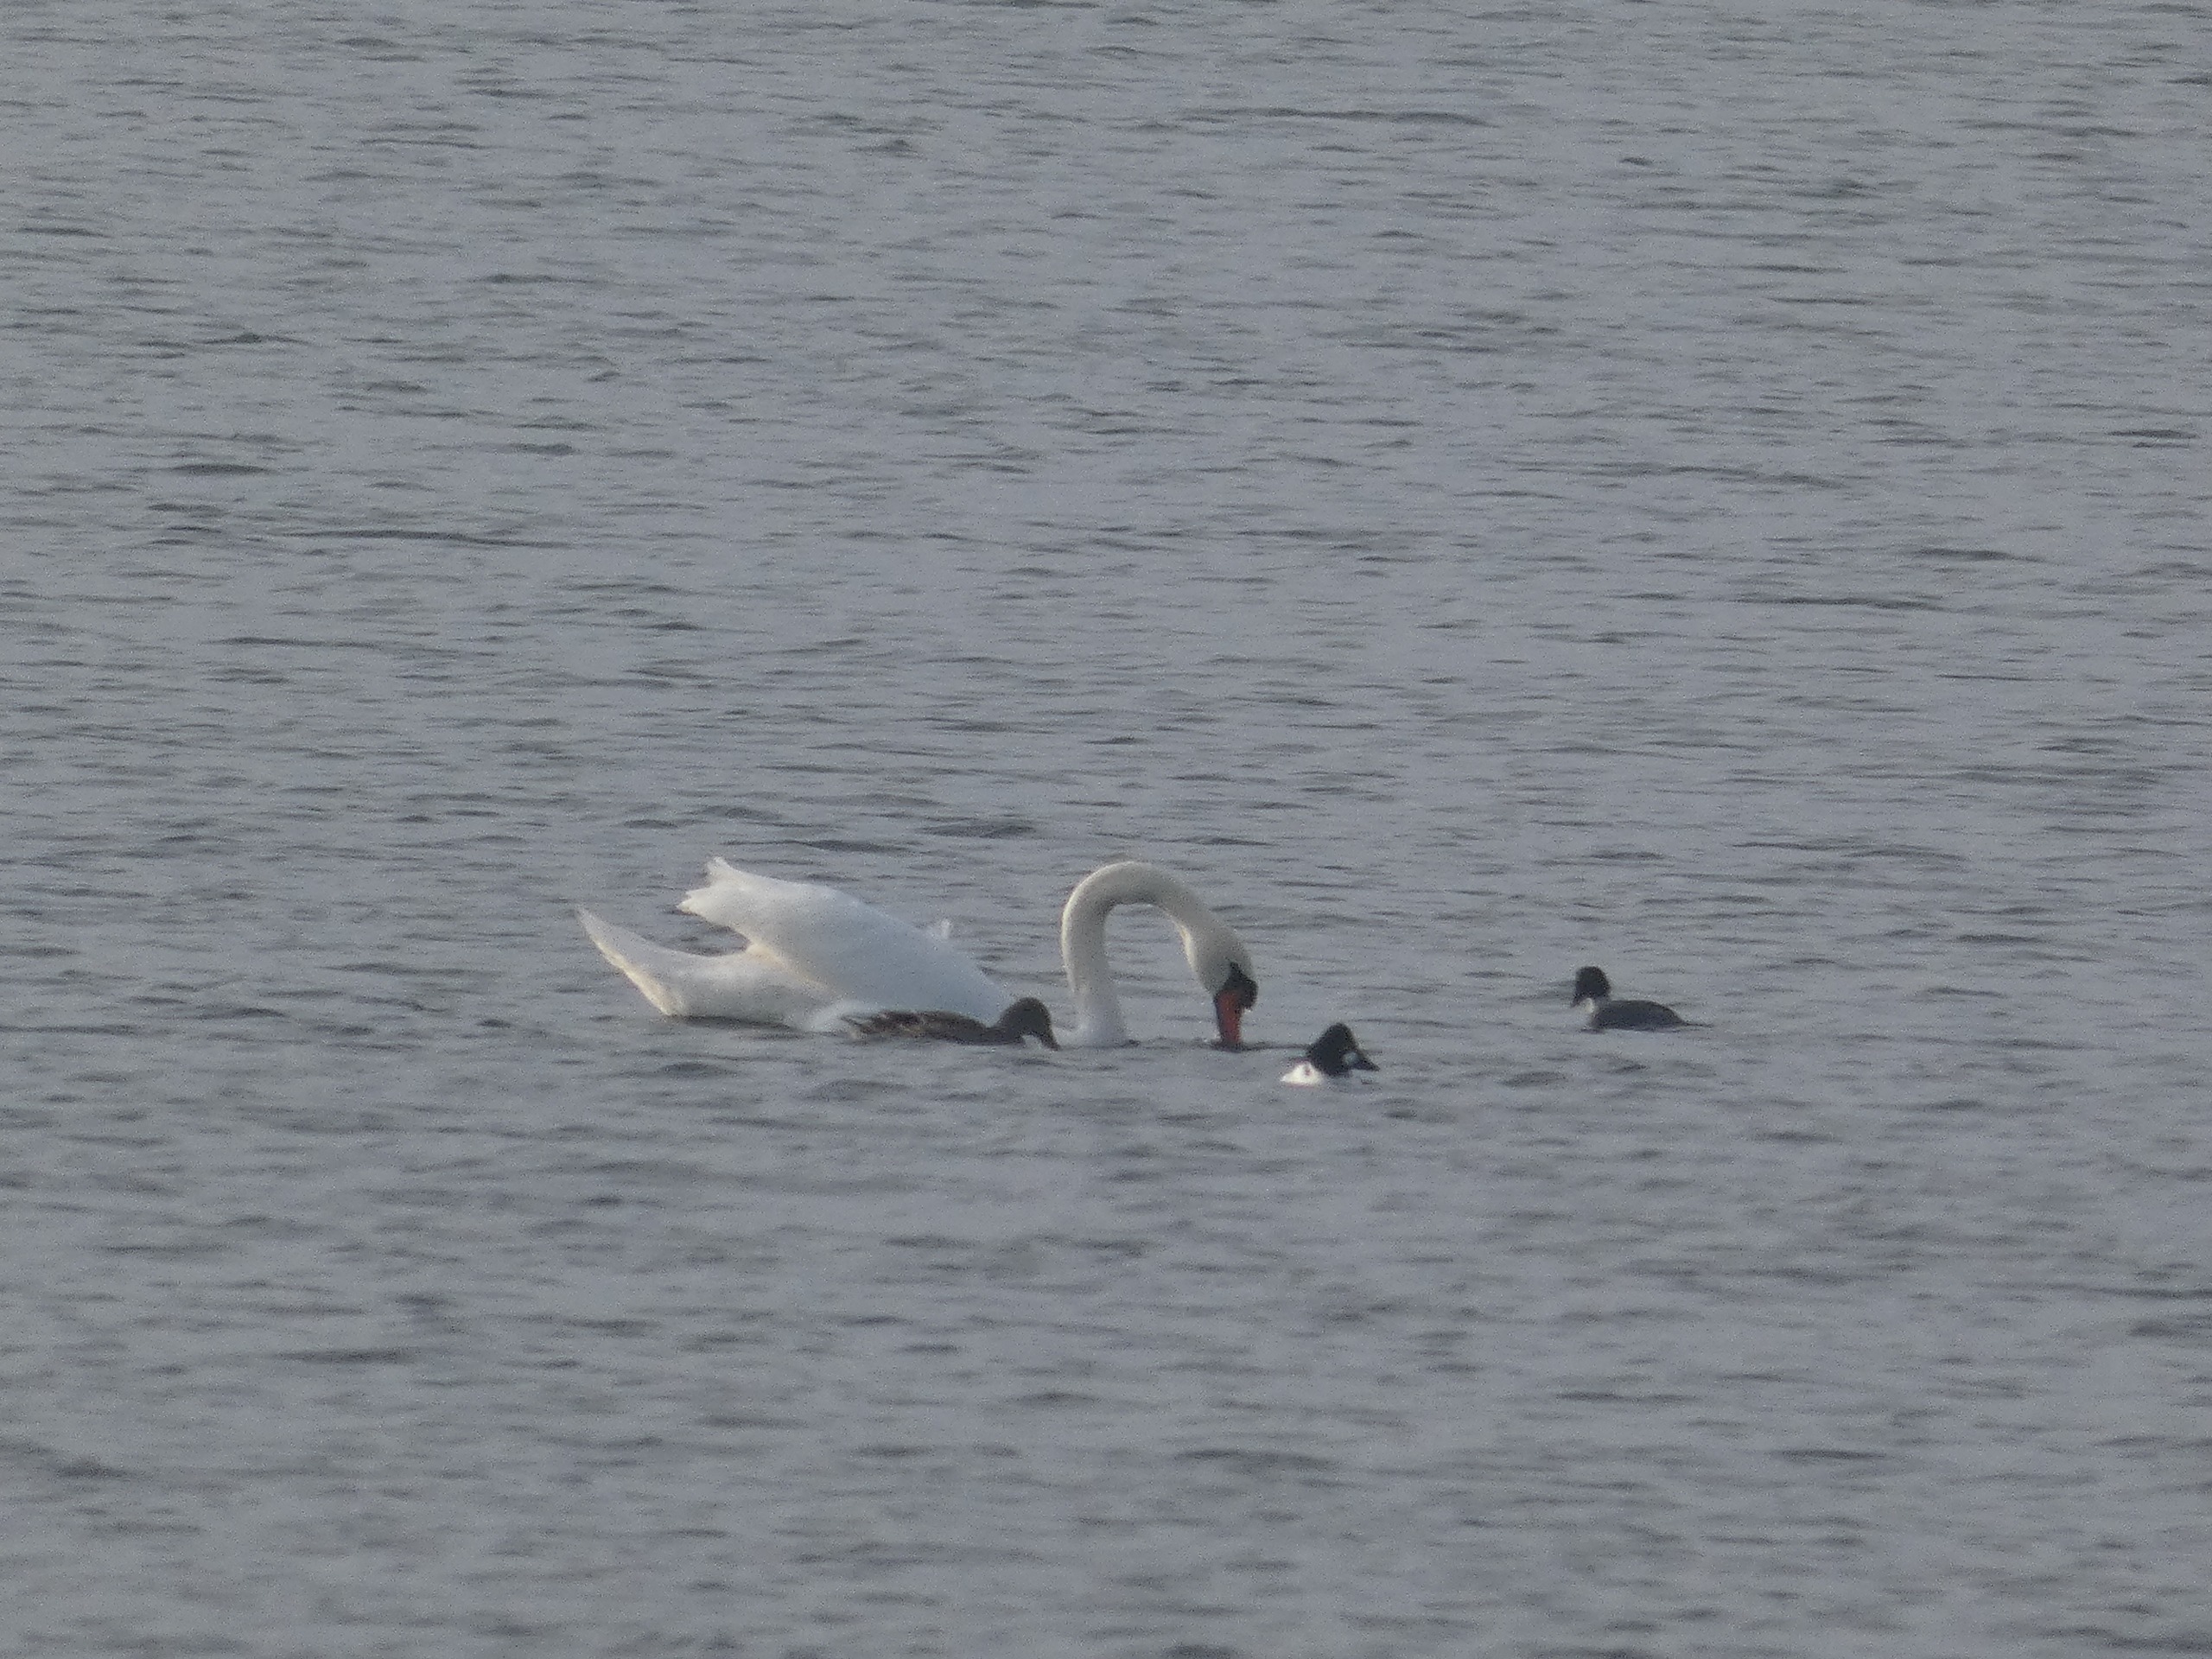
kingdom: Animalia
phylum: Chordata
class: Aves
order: Anseriformes
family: Anatidae
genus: Cygnus
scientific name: Cygnus olor
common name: Knopsvane
